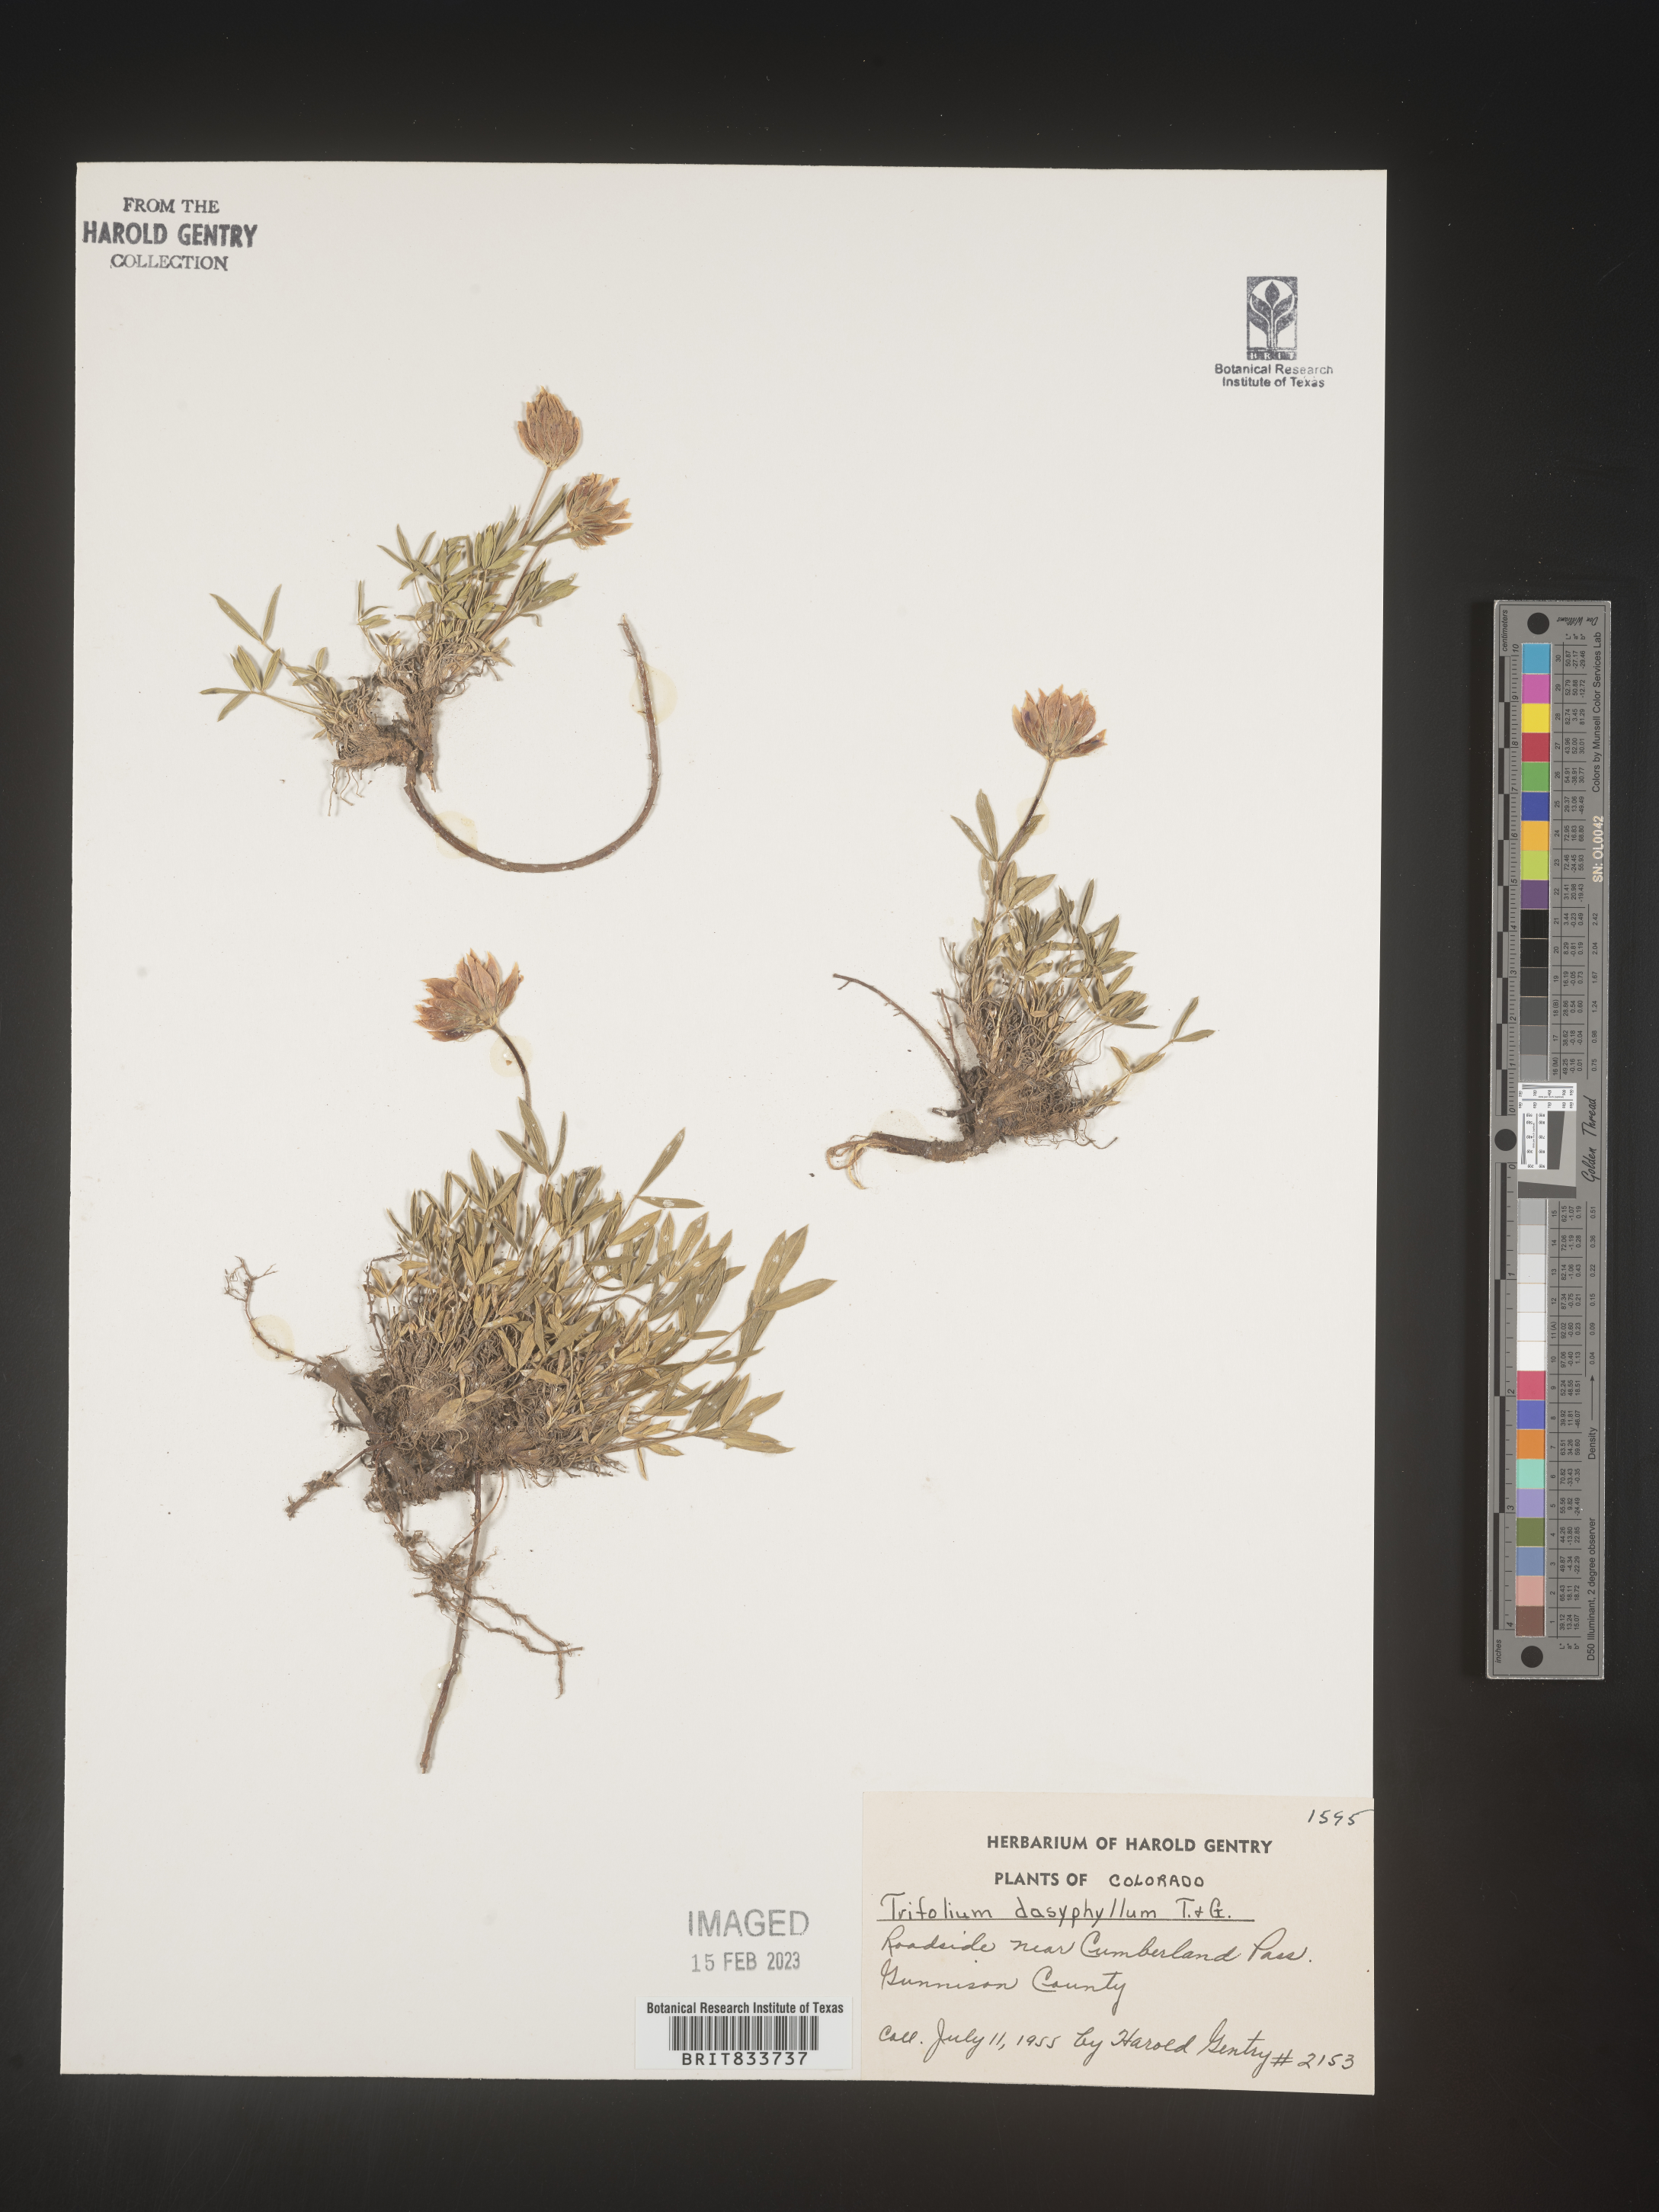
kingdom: Plantae
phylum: Tracheophyta
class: Magnoliopsida
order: Fabales
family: Fabaceae
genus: Trifolium
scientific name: Trifolium
